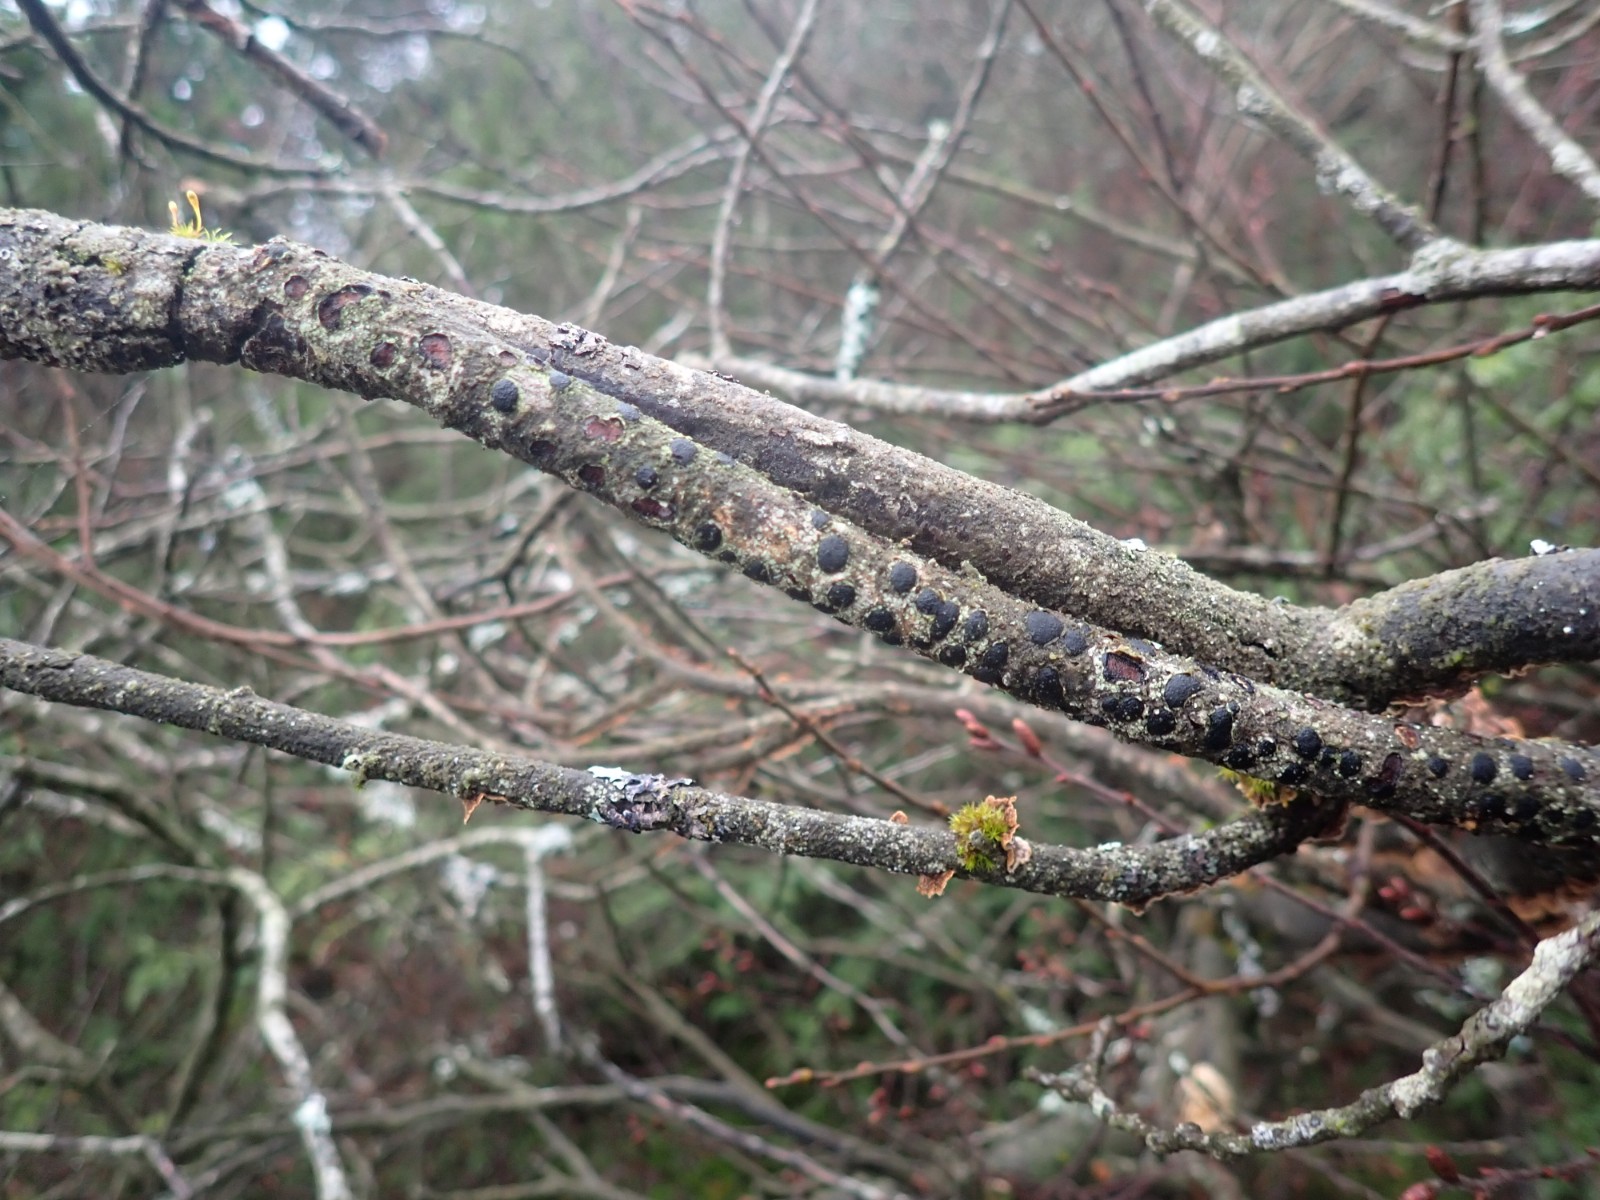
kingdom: Fungi
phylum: Ascomycota
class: Sordariomycetes
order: Xylariales
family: Diatrypaceae
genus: Diatrype
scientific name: Diatrype bullata
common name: pile-kulskorpe
